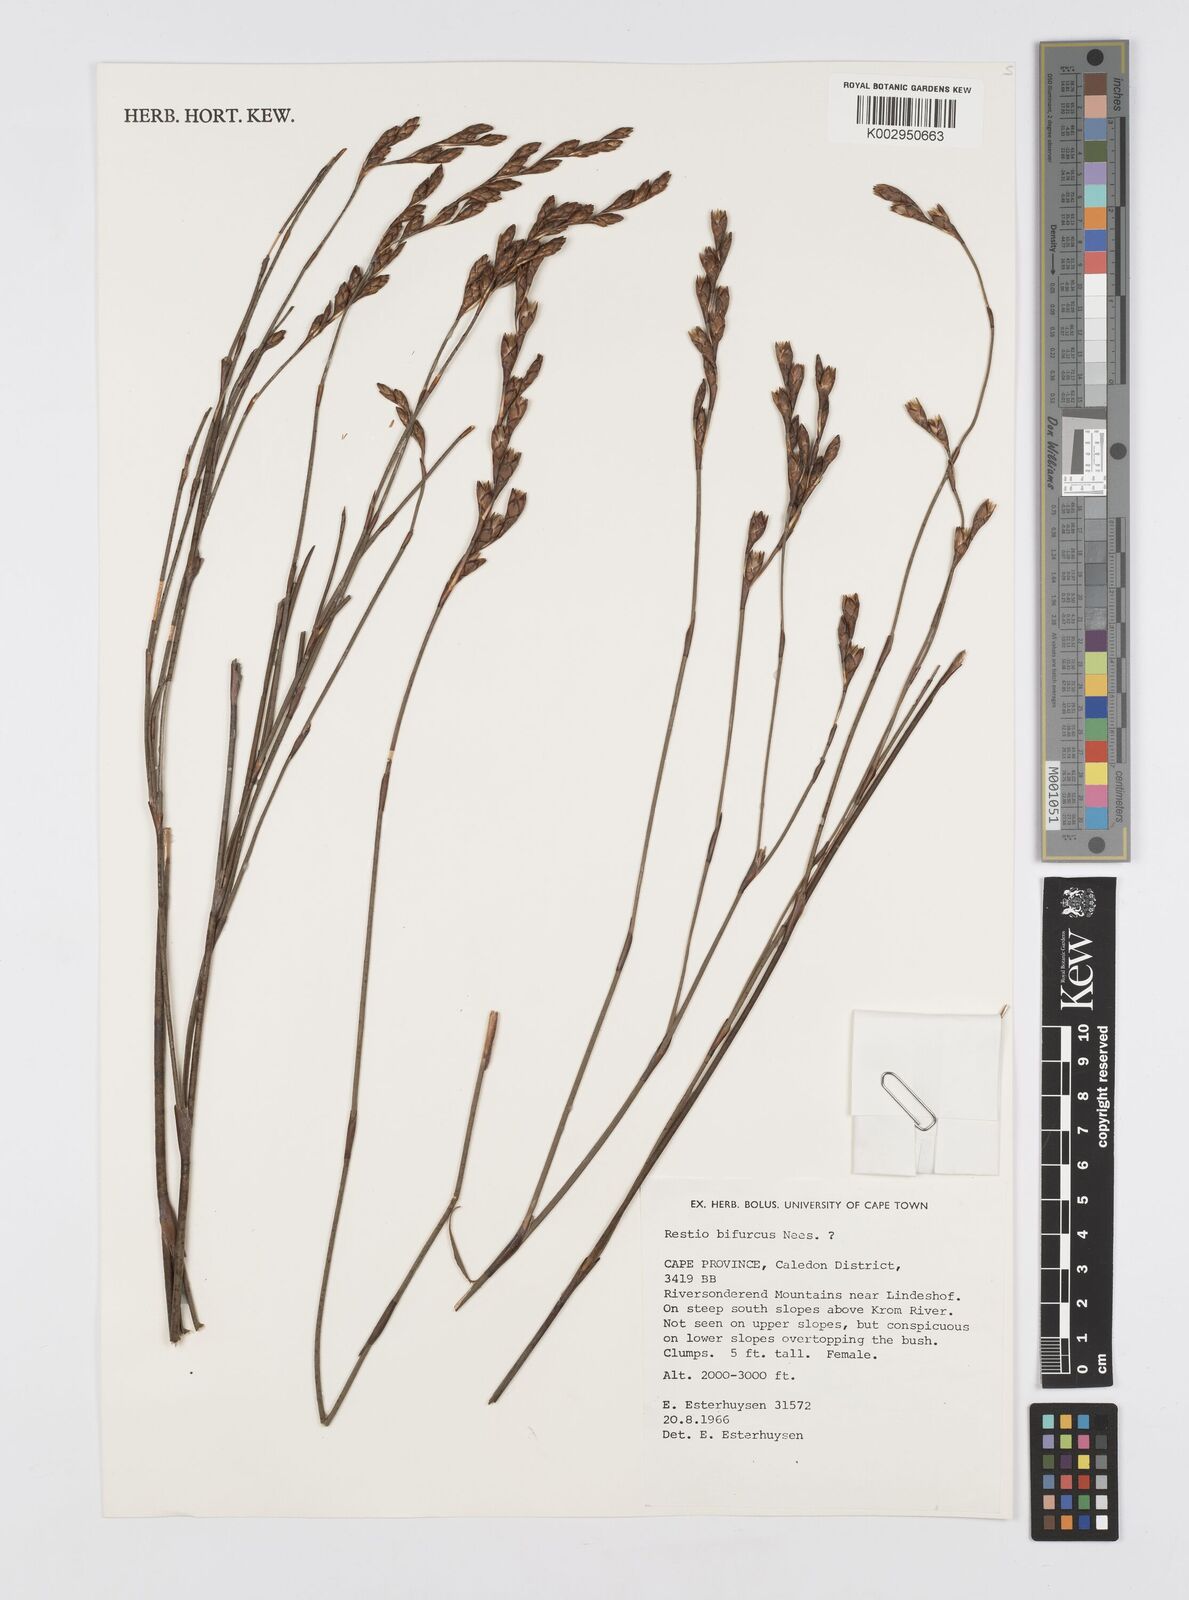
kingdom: Plantae
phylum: Tracheophyta
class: Liliopsida
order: Poales
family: Restionaceae
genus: Restio
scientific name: Restio bifurcus
